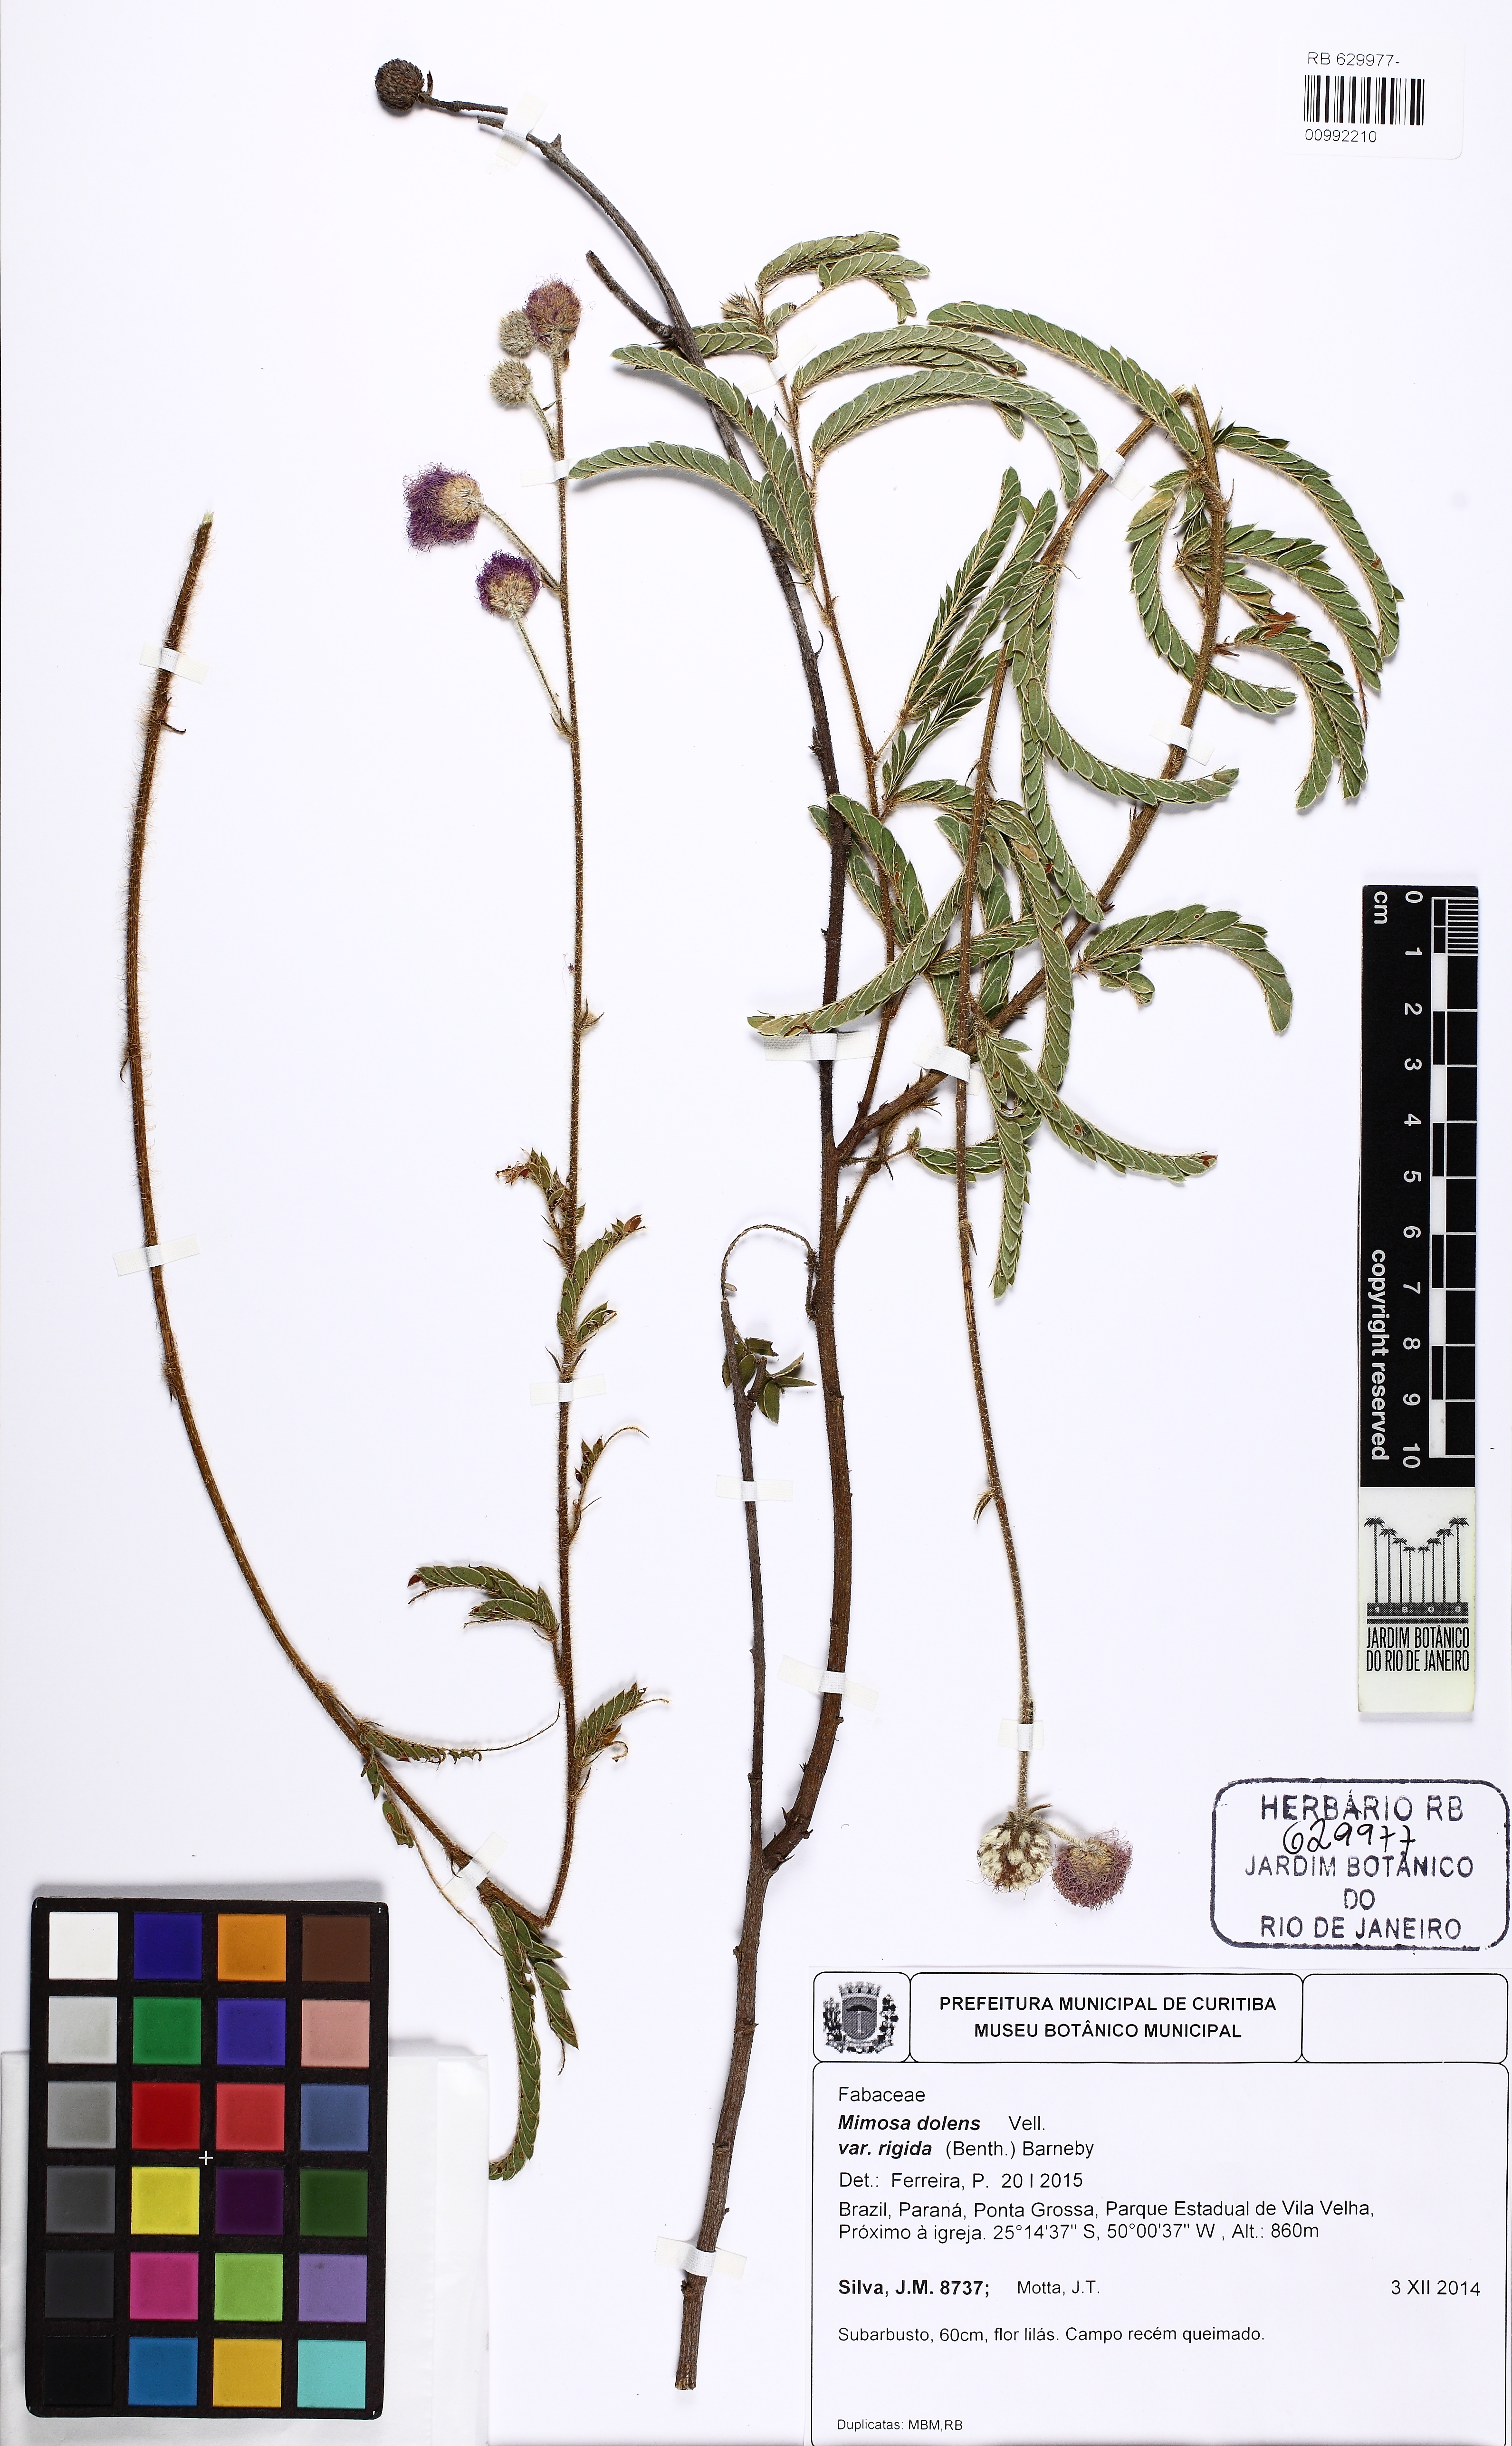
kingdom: Plantae
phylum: Tracheophyta
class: Magnoliopsida
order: Fabales
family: Fabaceae
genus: Mimosa
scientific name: Mimosa dolens
